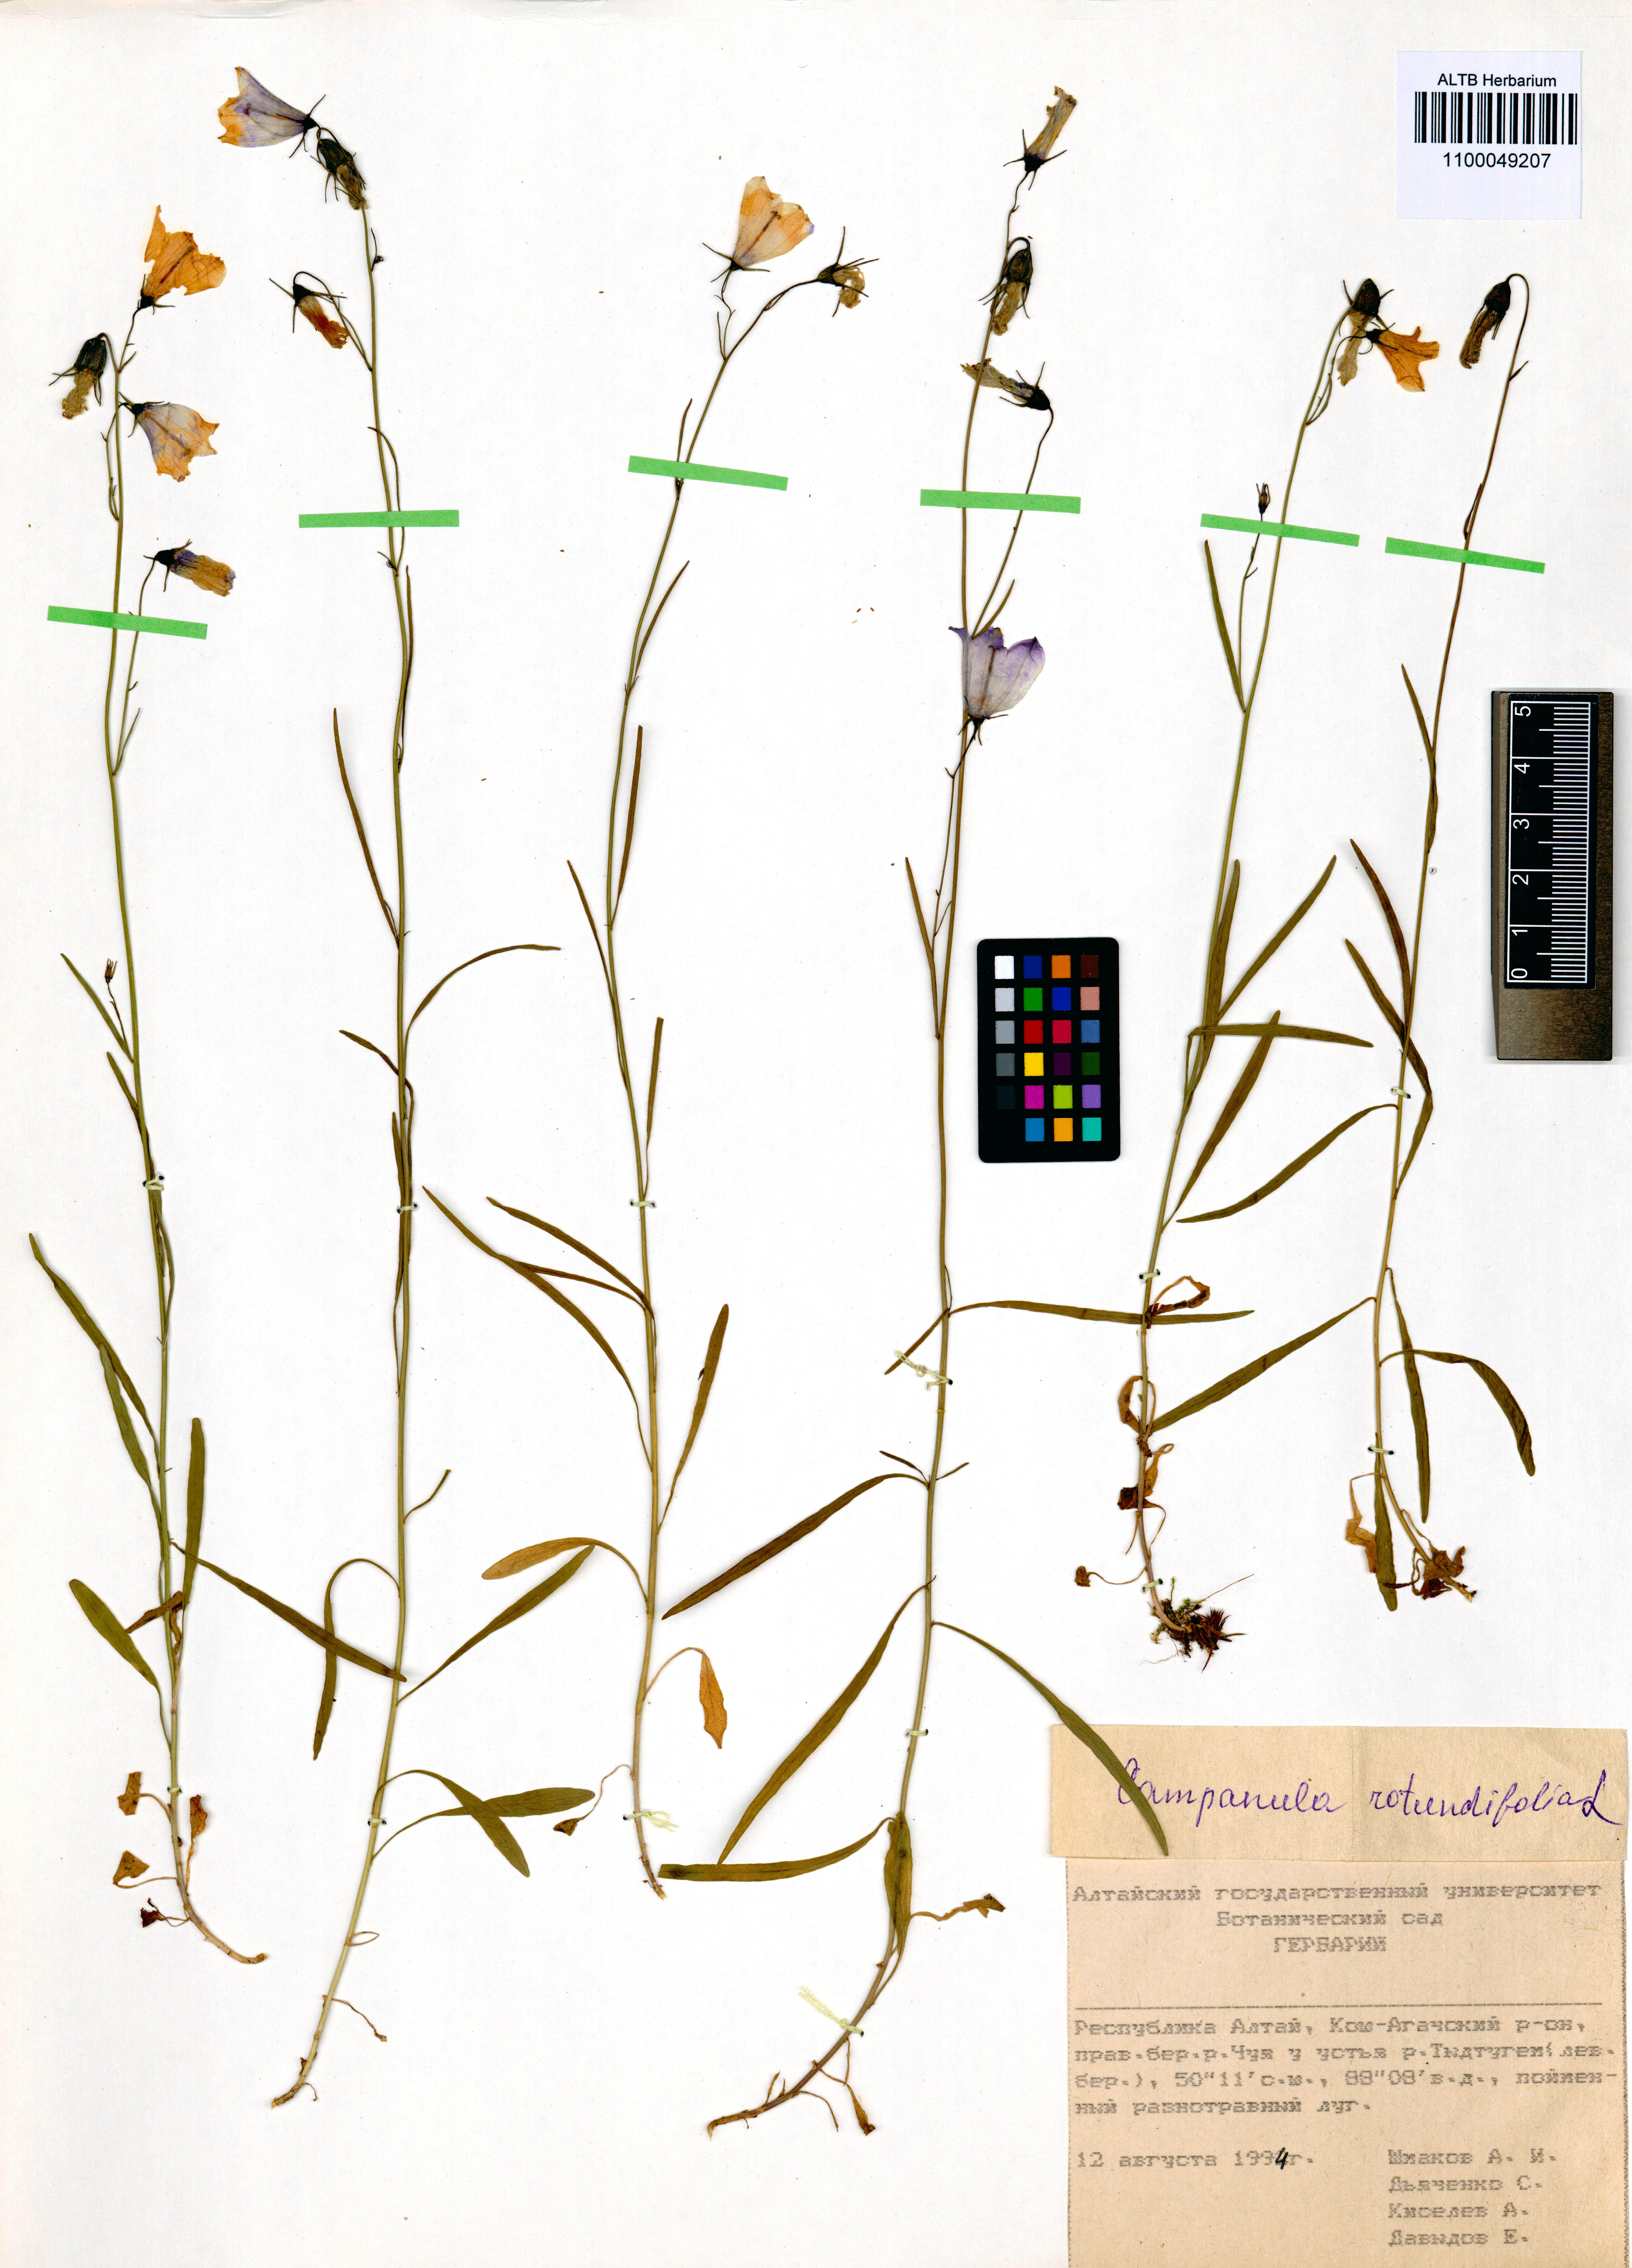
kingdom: Plantae
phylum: Tracheophyta
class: Magnoliopsida
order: Asterales
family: Campanulaceae
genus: Campanula
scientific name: Campanula rotundifolia
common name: Harebell
